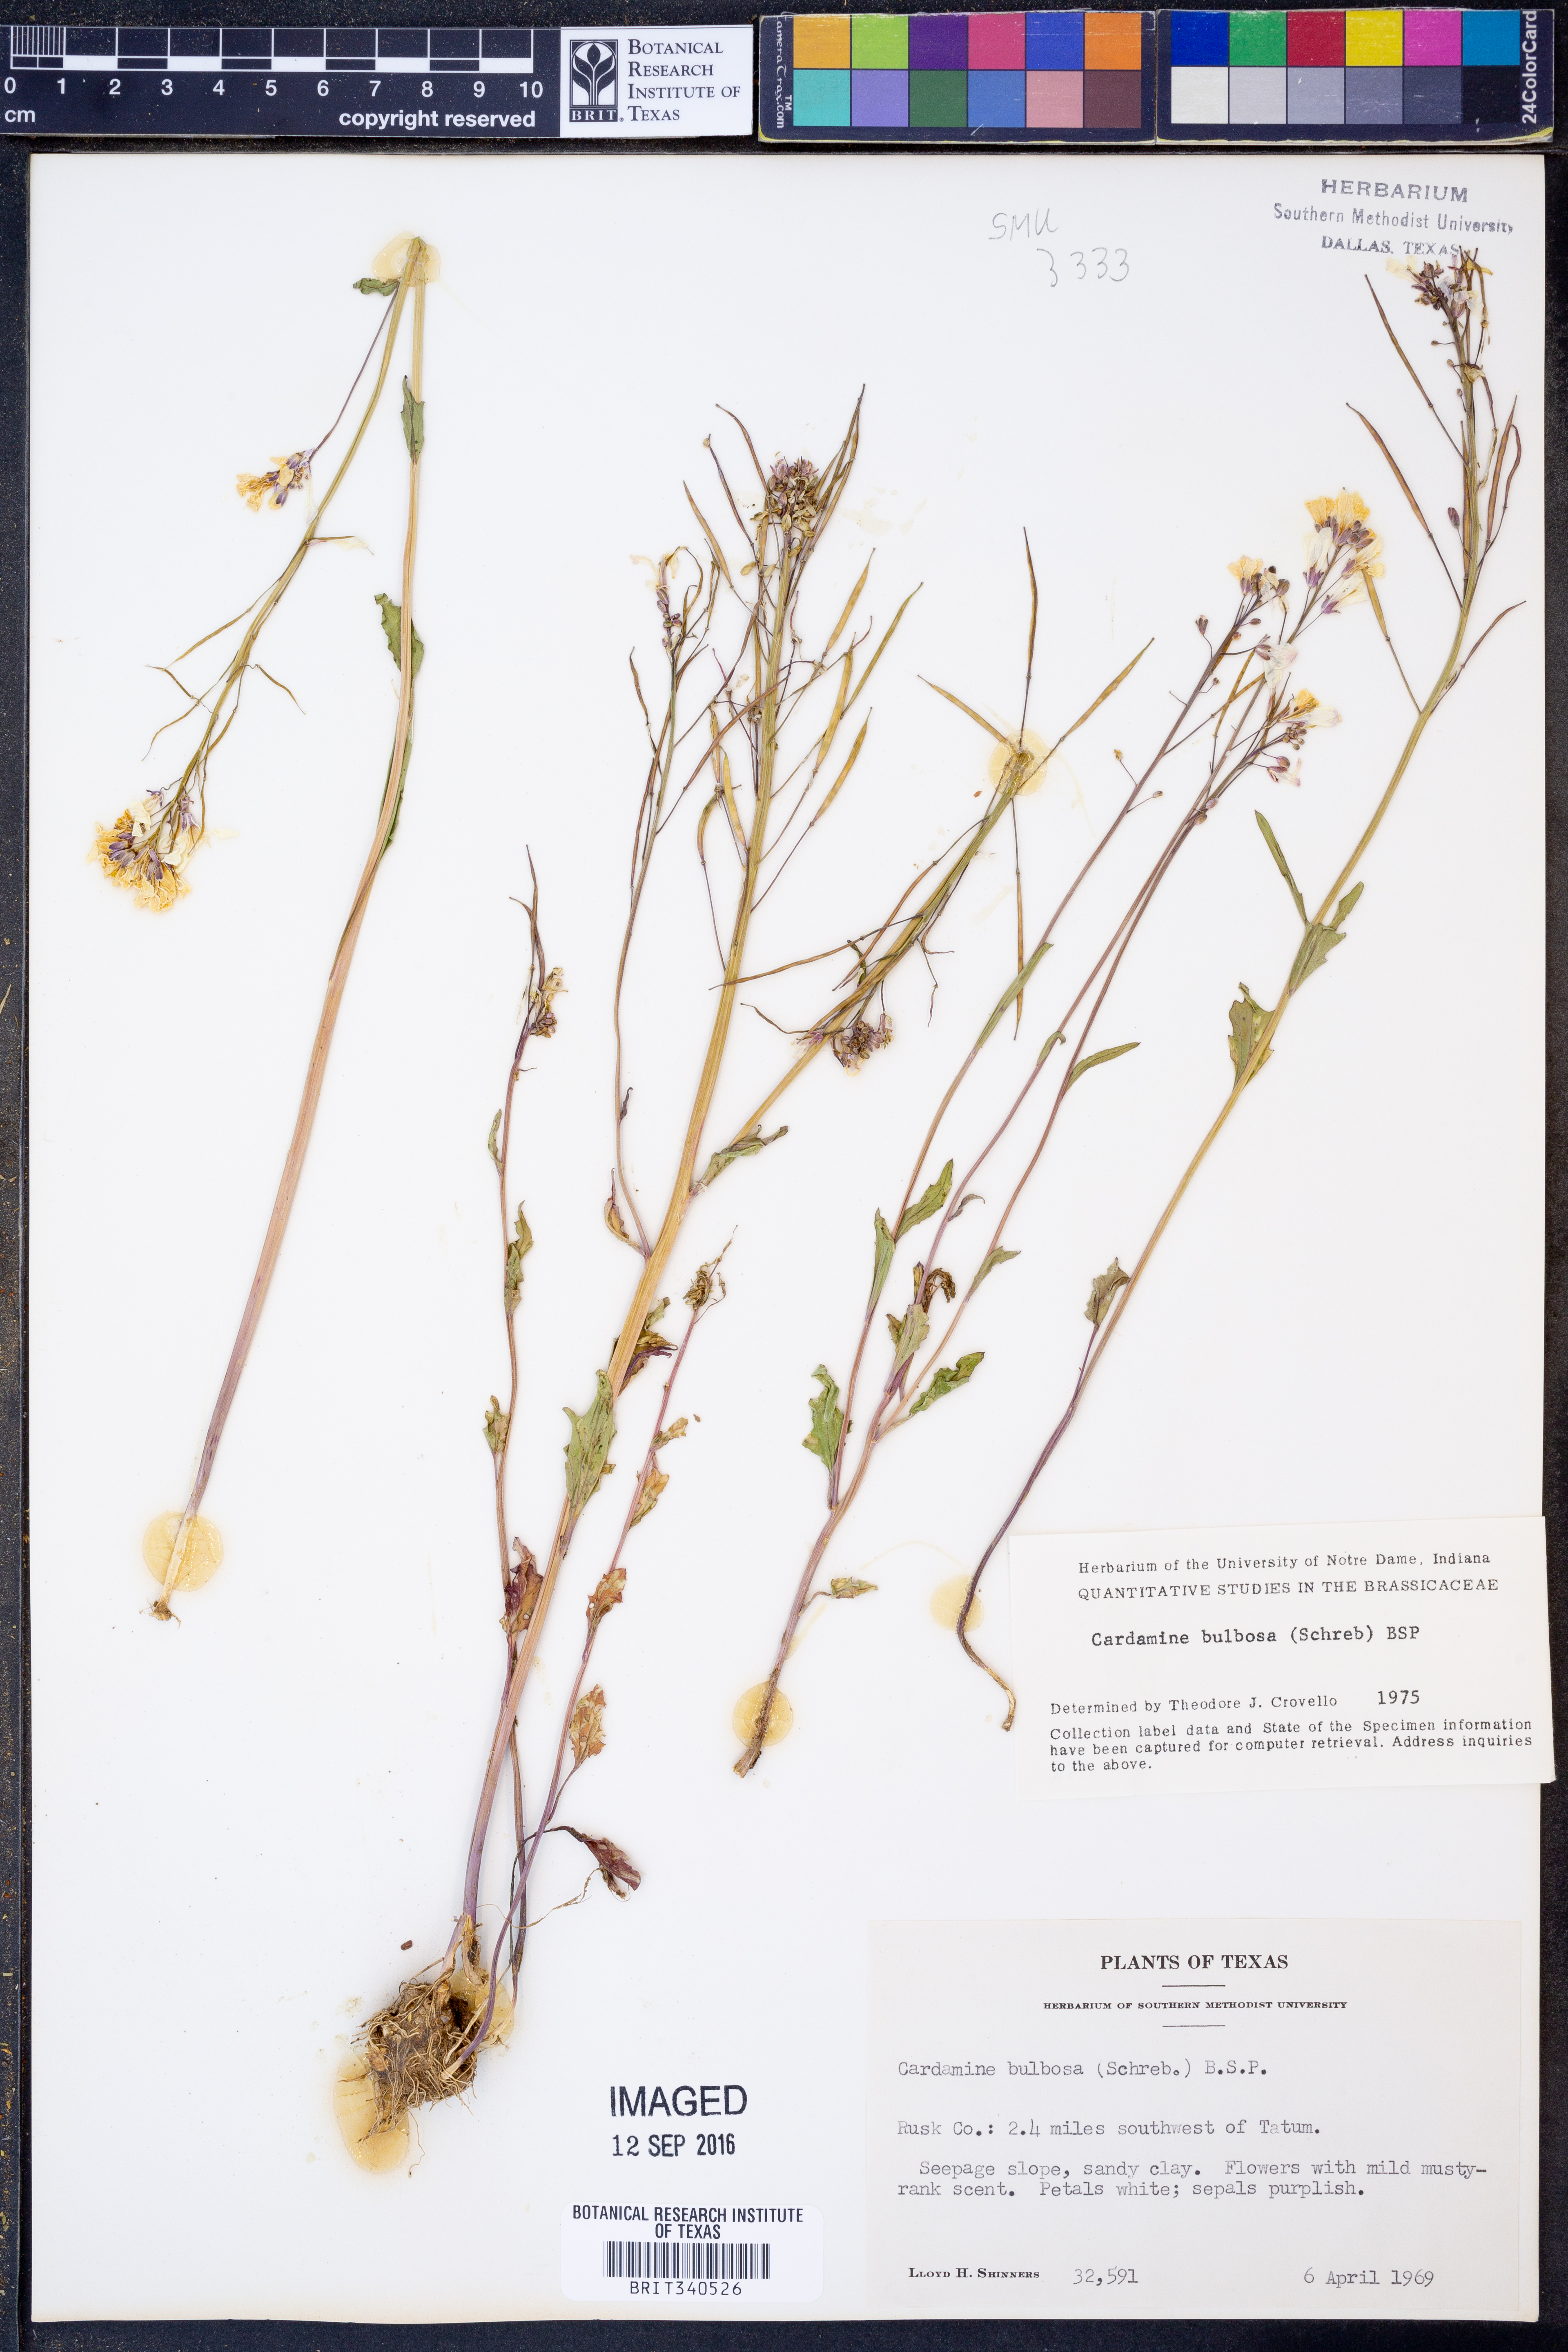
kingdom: Plantae
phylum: Tracheophyta
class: Magnoliopsida
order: Brassicales
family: Brassicaceae
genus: Cardamine
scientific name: Cardamine bulbosa
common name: Spring cress
